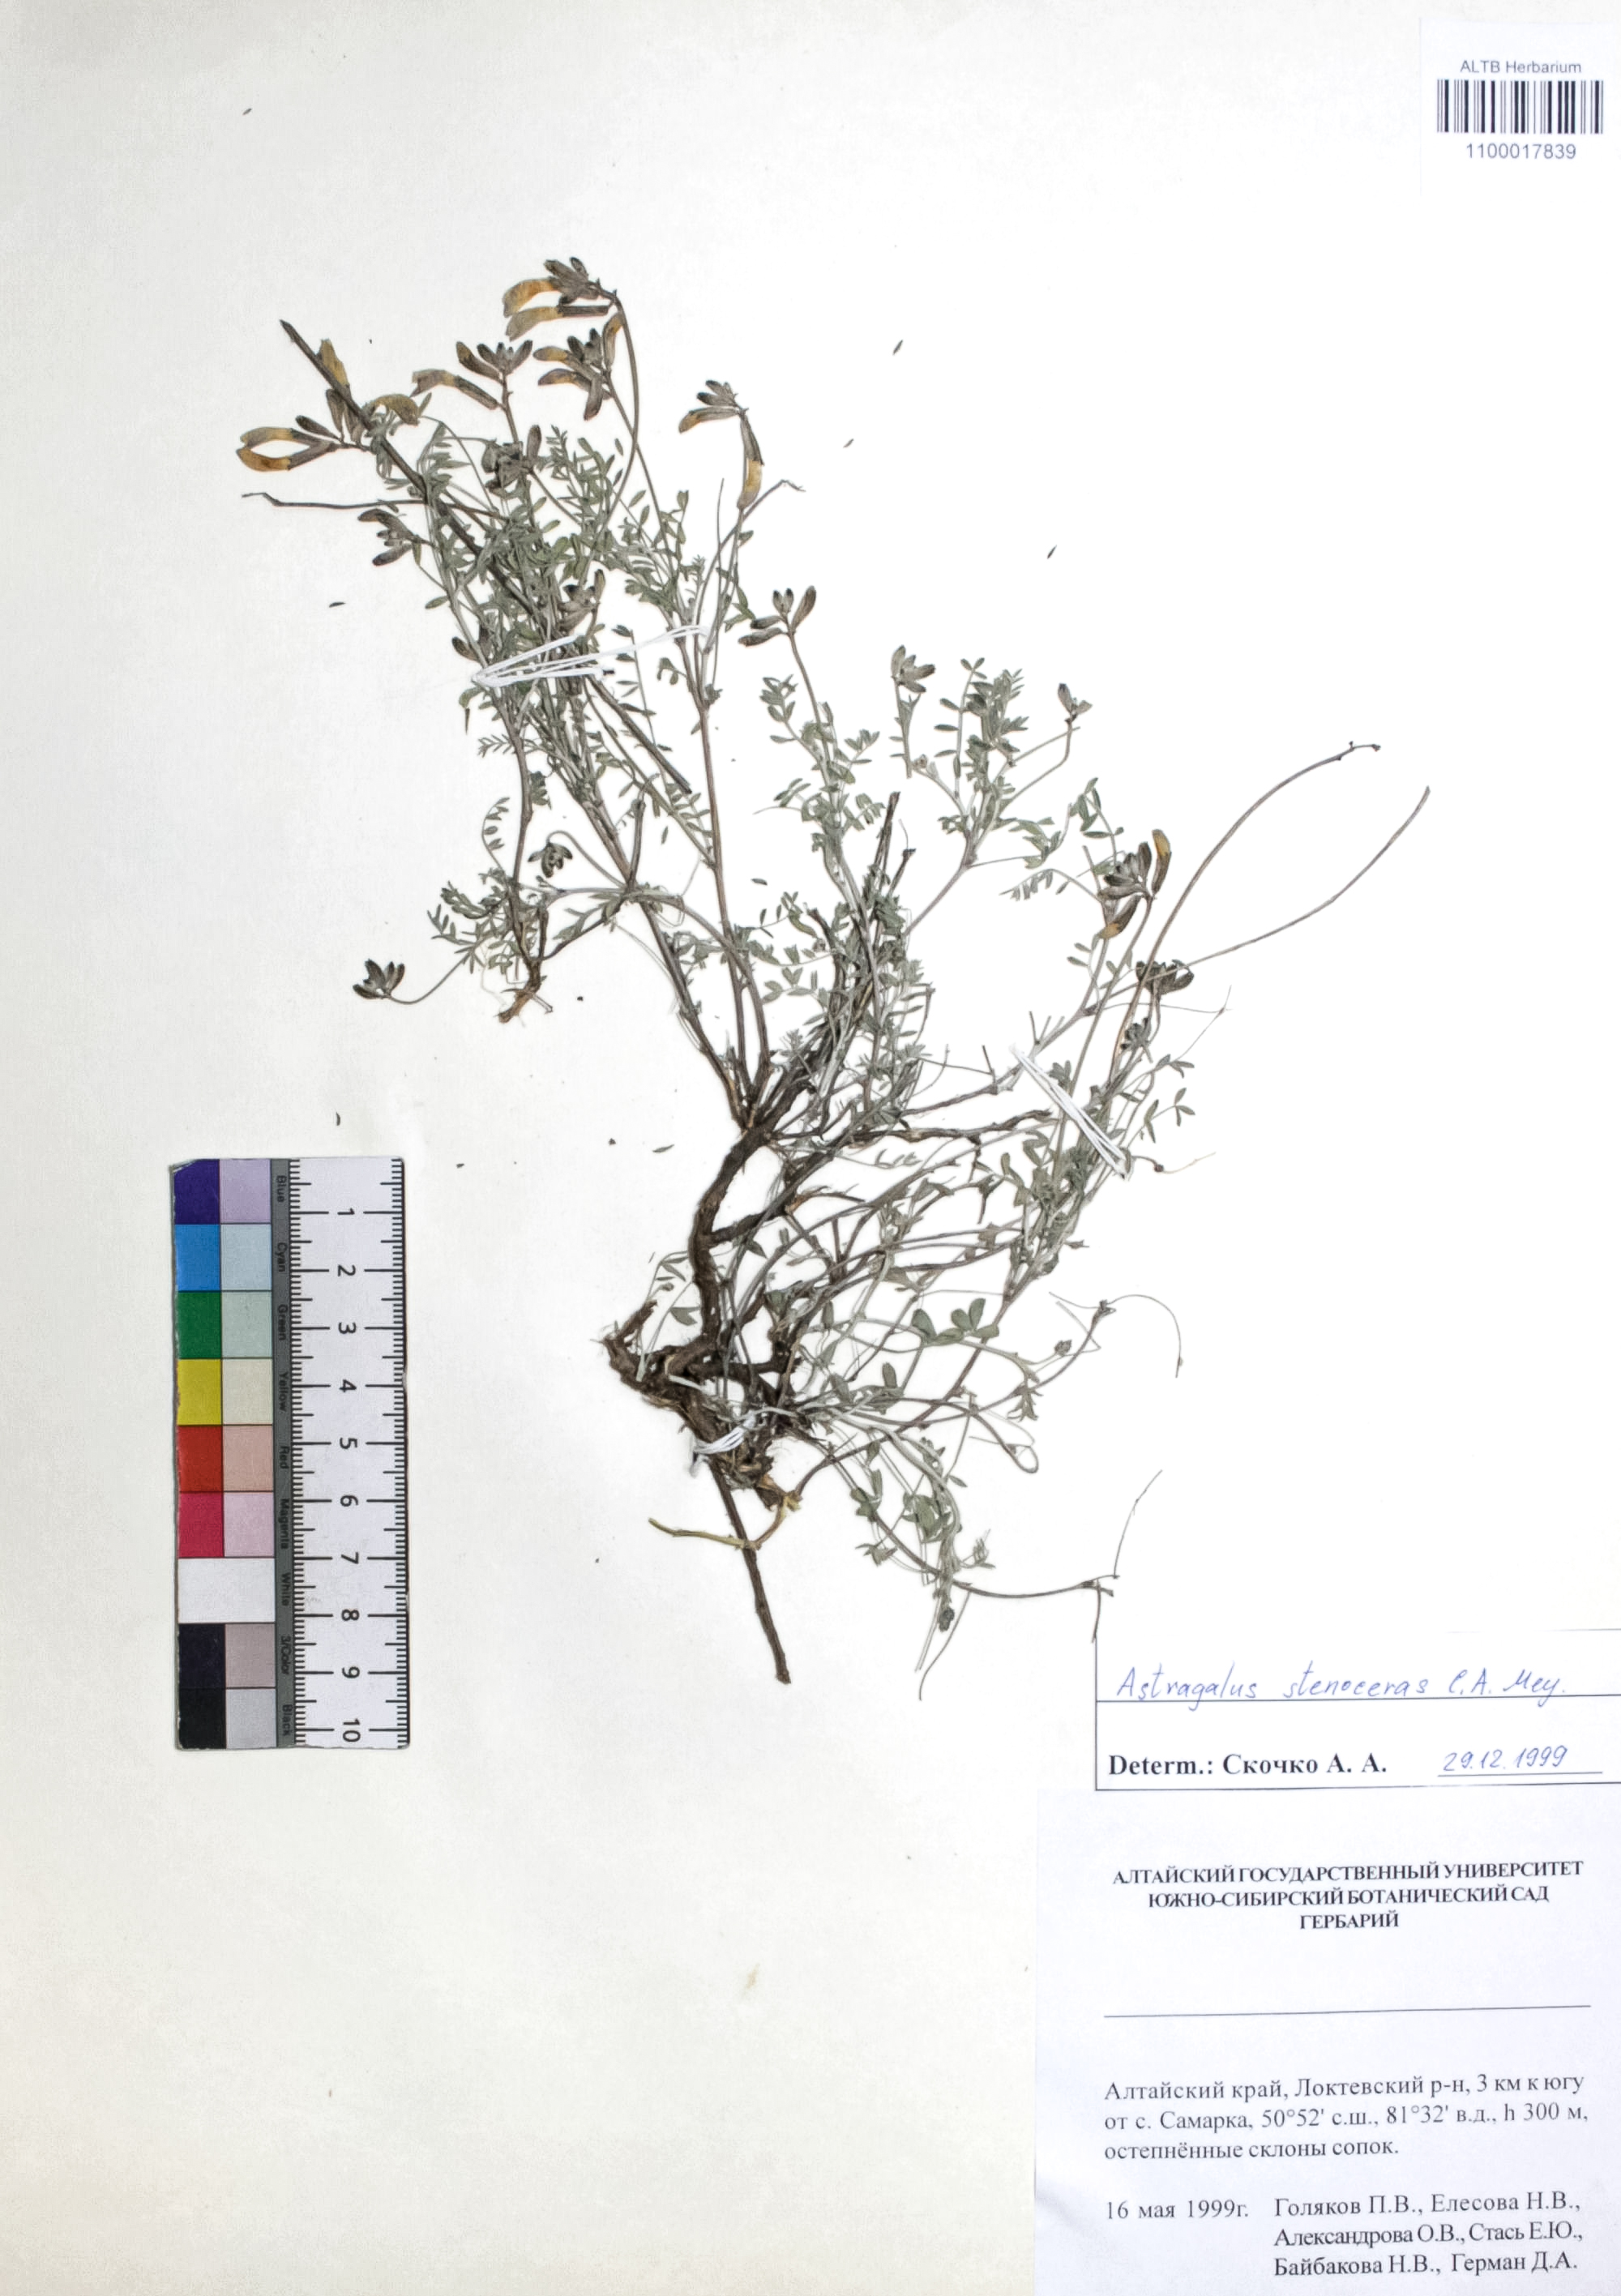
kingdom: Plantae
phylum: Tracheophyta
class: Magnoliopsida
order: Fabales
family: Fabaceae
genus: Astragalus
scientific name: Astragalus stenoceras
